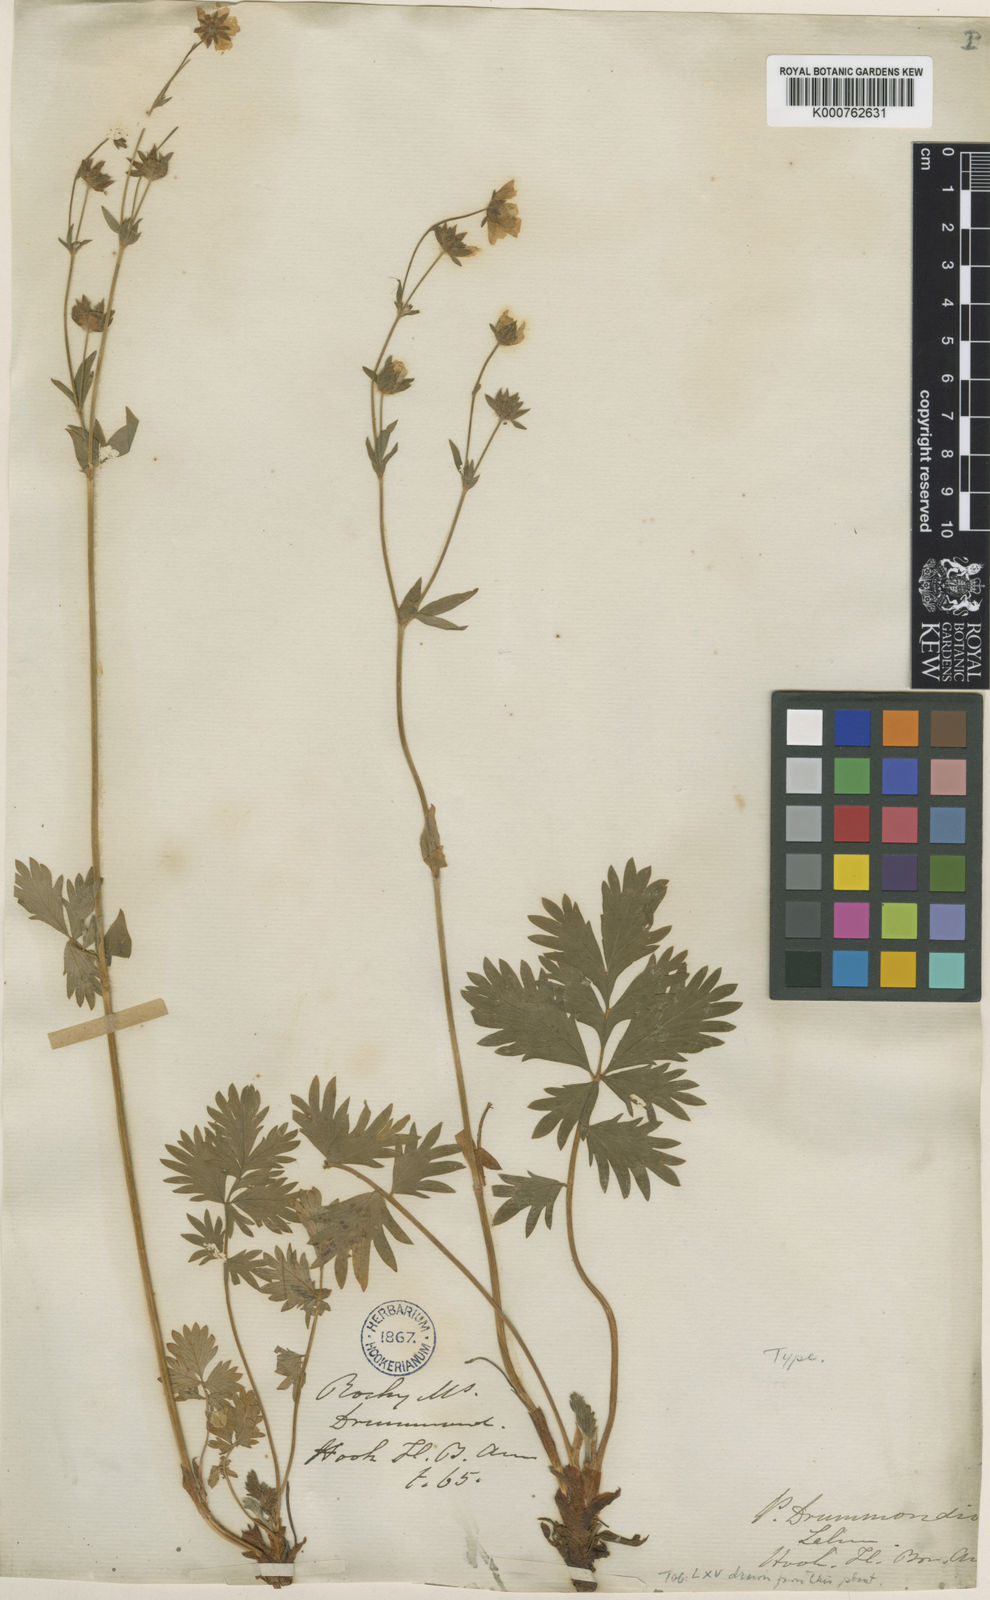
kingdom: Plantae
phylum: Tracheophyta
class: Magnoliopsida
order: Rosales
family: Rosaceae
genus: Potentilla
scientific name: Potentilla drummondii
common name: Drummond's cinquefoil
